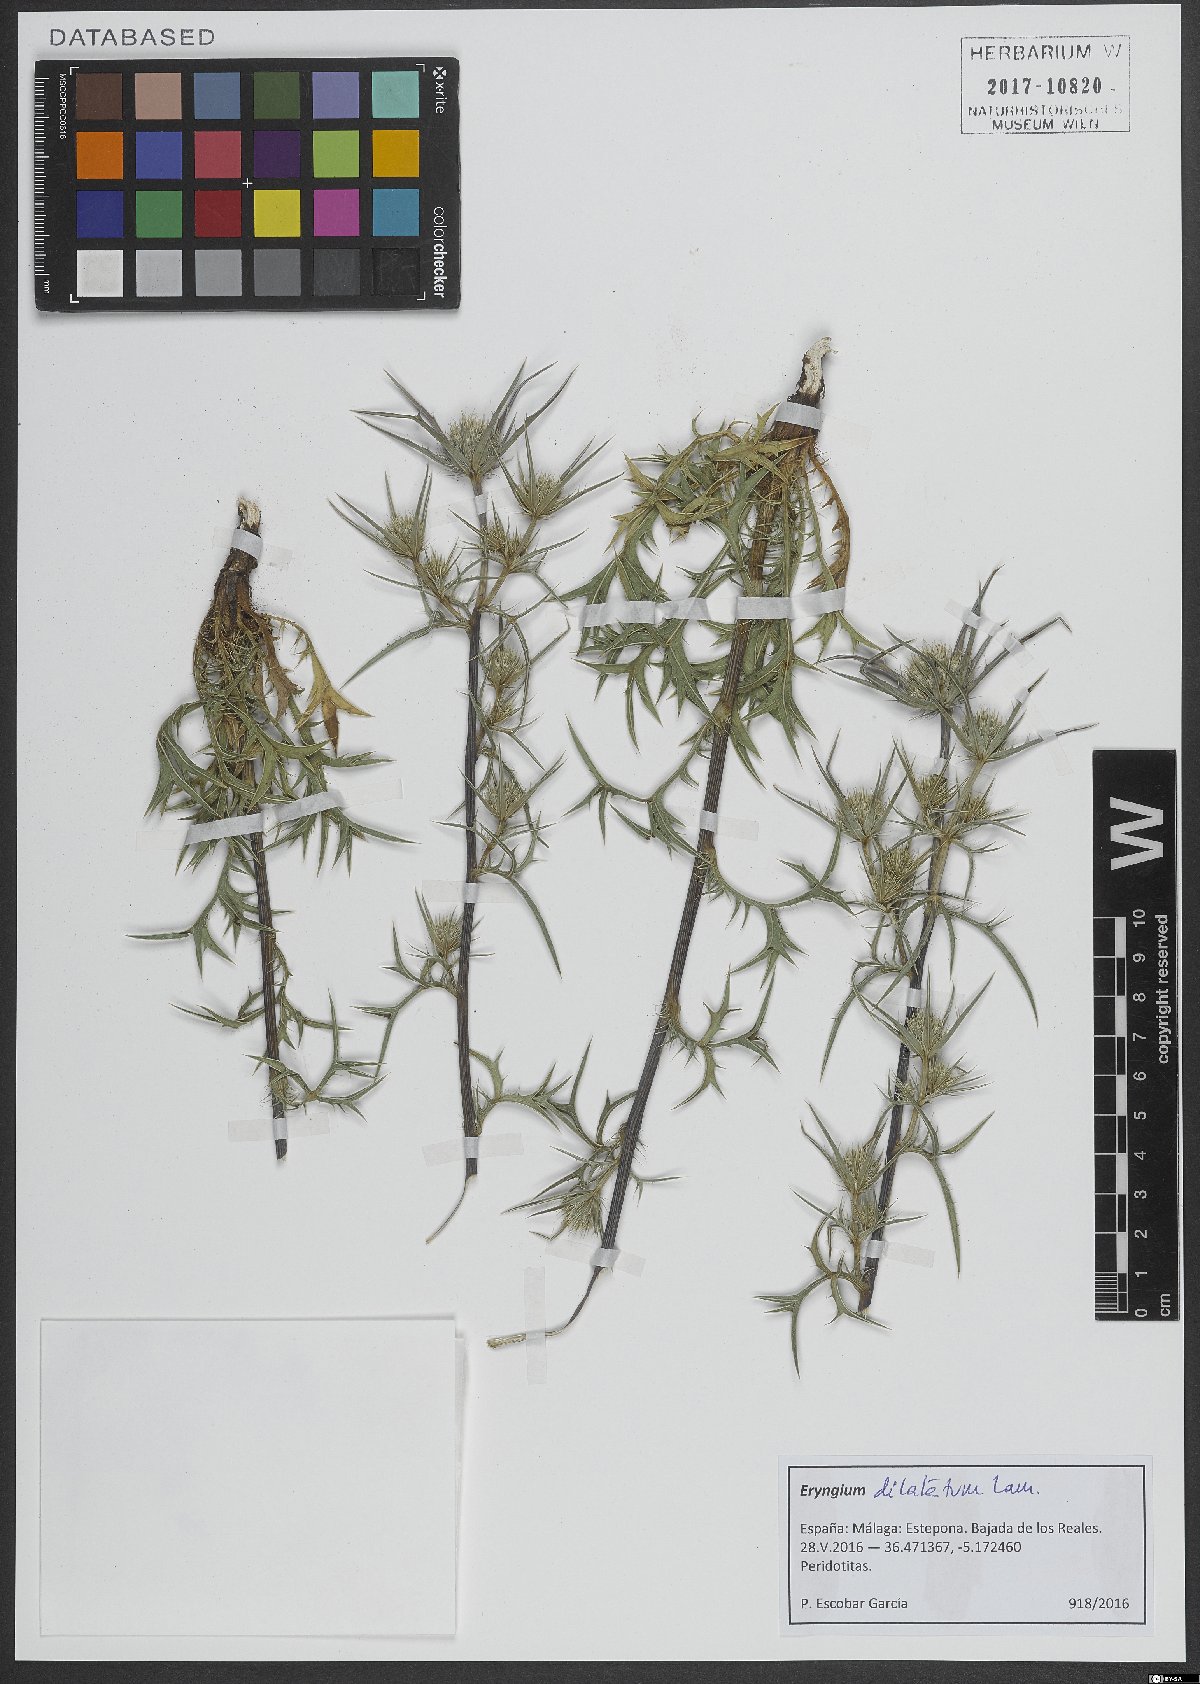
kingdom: Plantae
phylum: Tracheophyta
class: Magnoliopsida
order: Apiales
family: Apiaceae
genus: Eryngium
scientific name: Eryngium dilatatum
